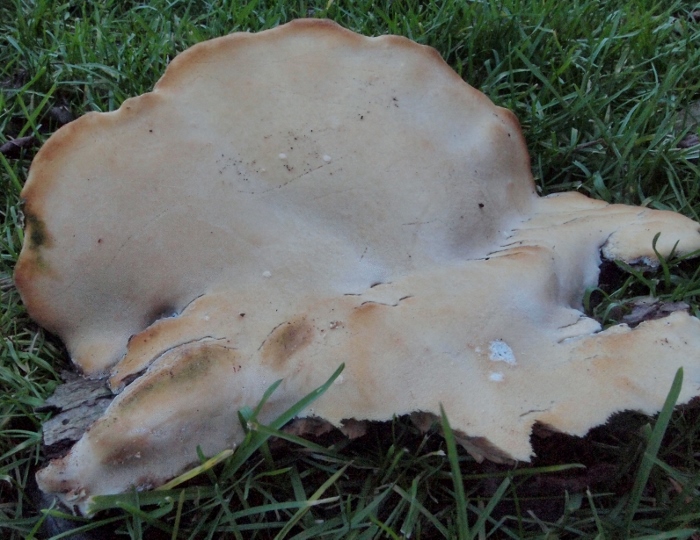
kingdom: Fungi
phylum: Basidiomycota
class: Agaricomycetes
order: Polyporales
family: Ischnodermataceae
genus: Ischnoderma
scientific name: Ischnoderma resinosum
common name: løv-tjæreporesvamp
